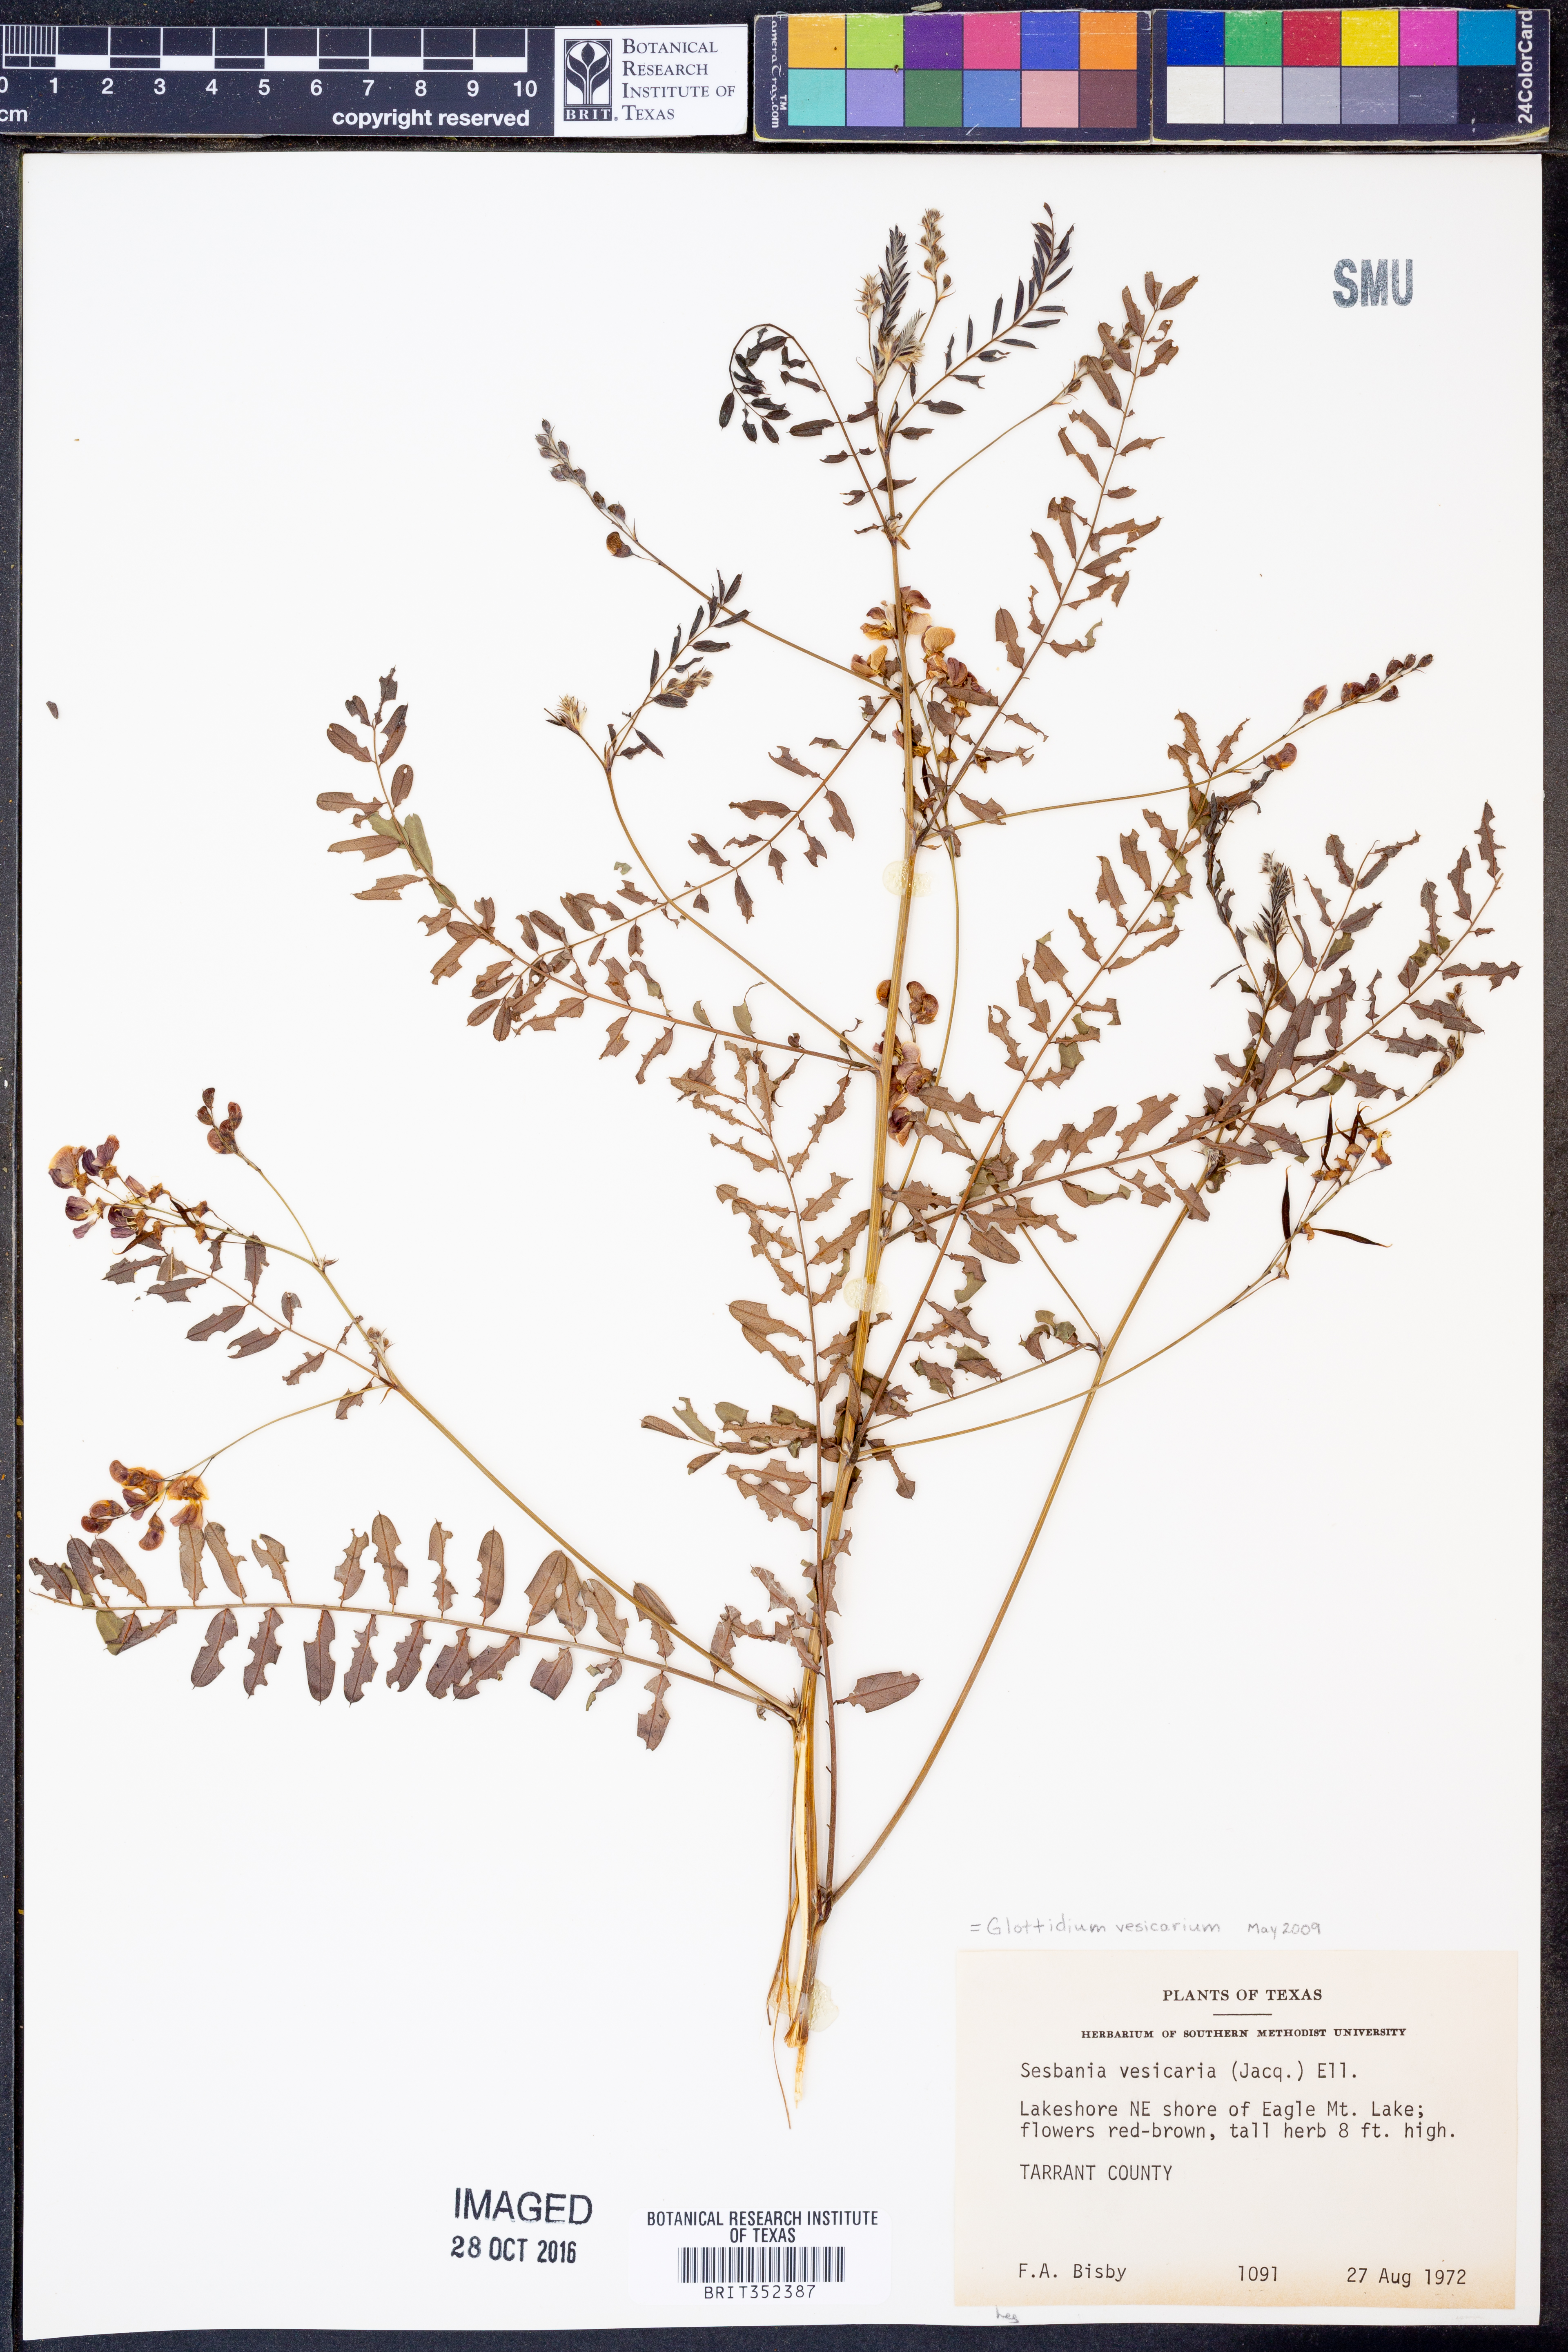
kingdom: Plantae
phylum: Tracheophyta
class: Magnoliopsida
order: Fabales
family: Fabaceae
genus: Sesbania
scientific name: Sesbania vesicaria
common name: Bagpod
